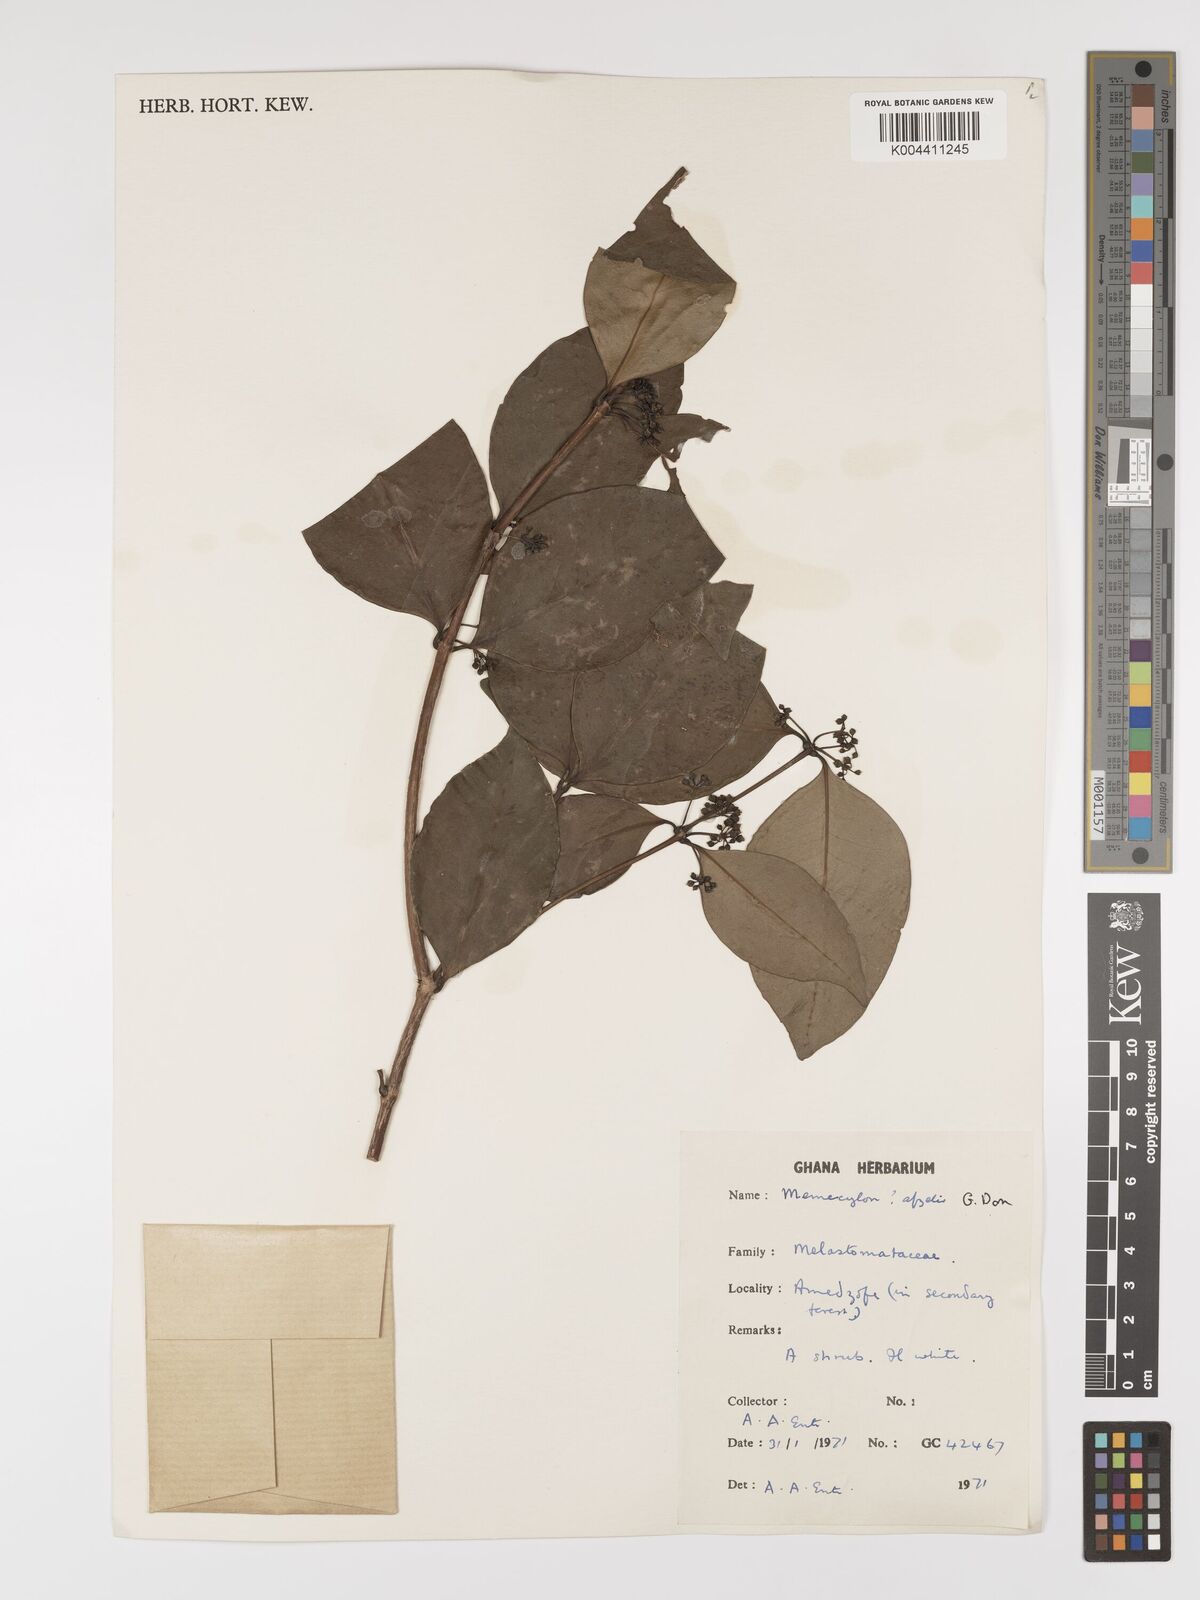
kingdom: Plantae
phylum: Tracheophyta
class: Magnoliopsida
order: Myrtales
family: Melastomataceae
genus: Memecylon
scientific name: Memecylon afzelii
